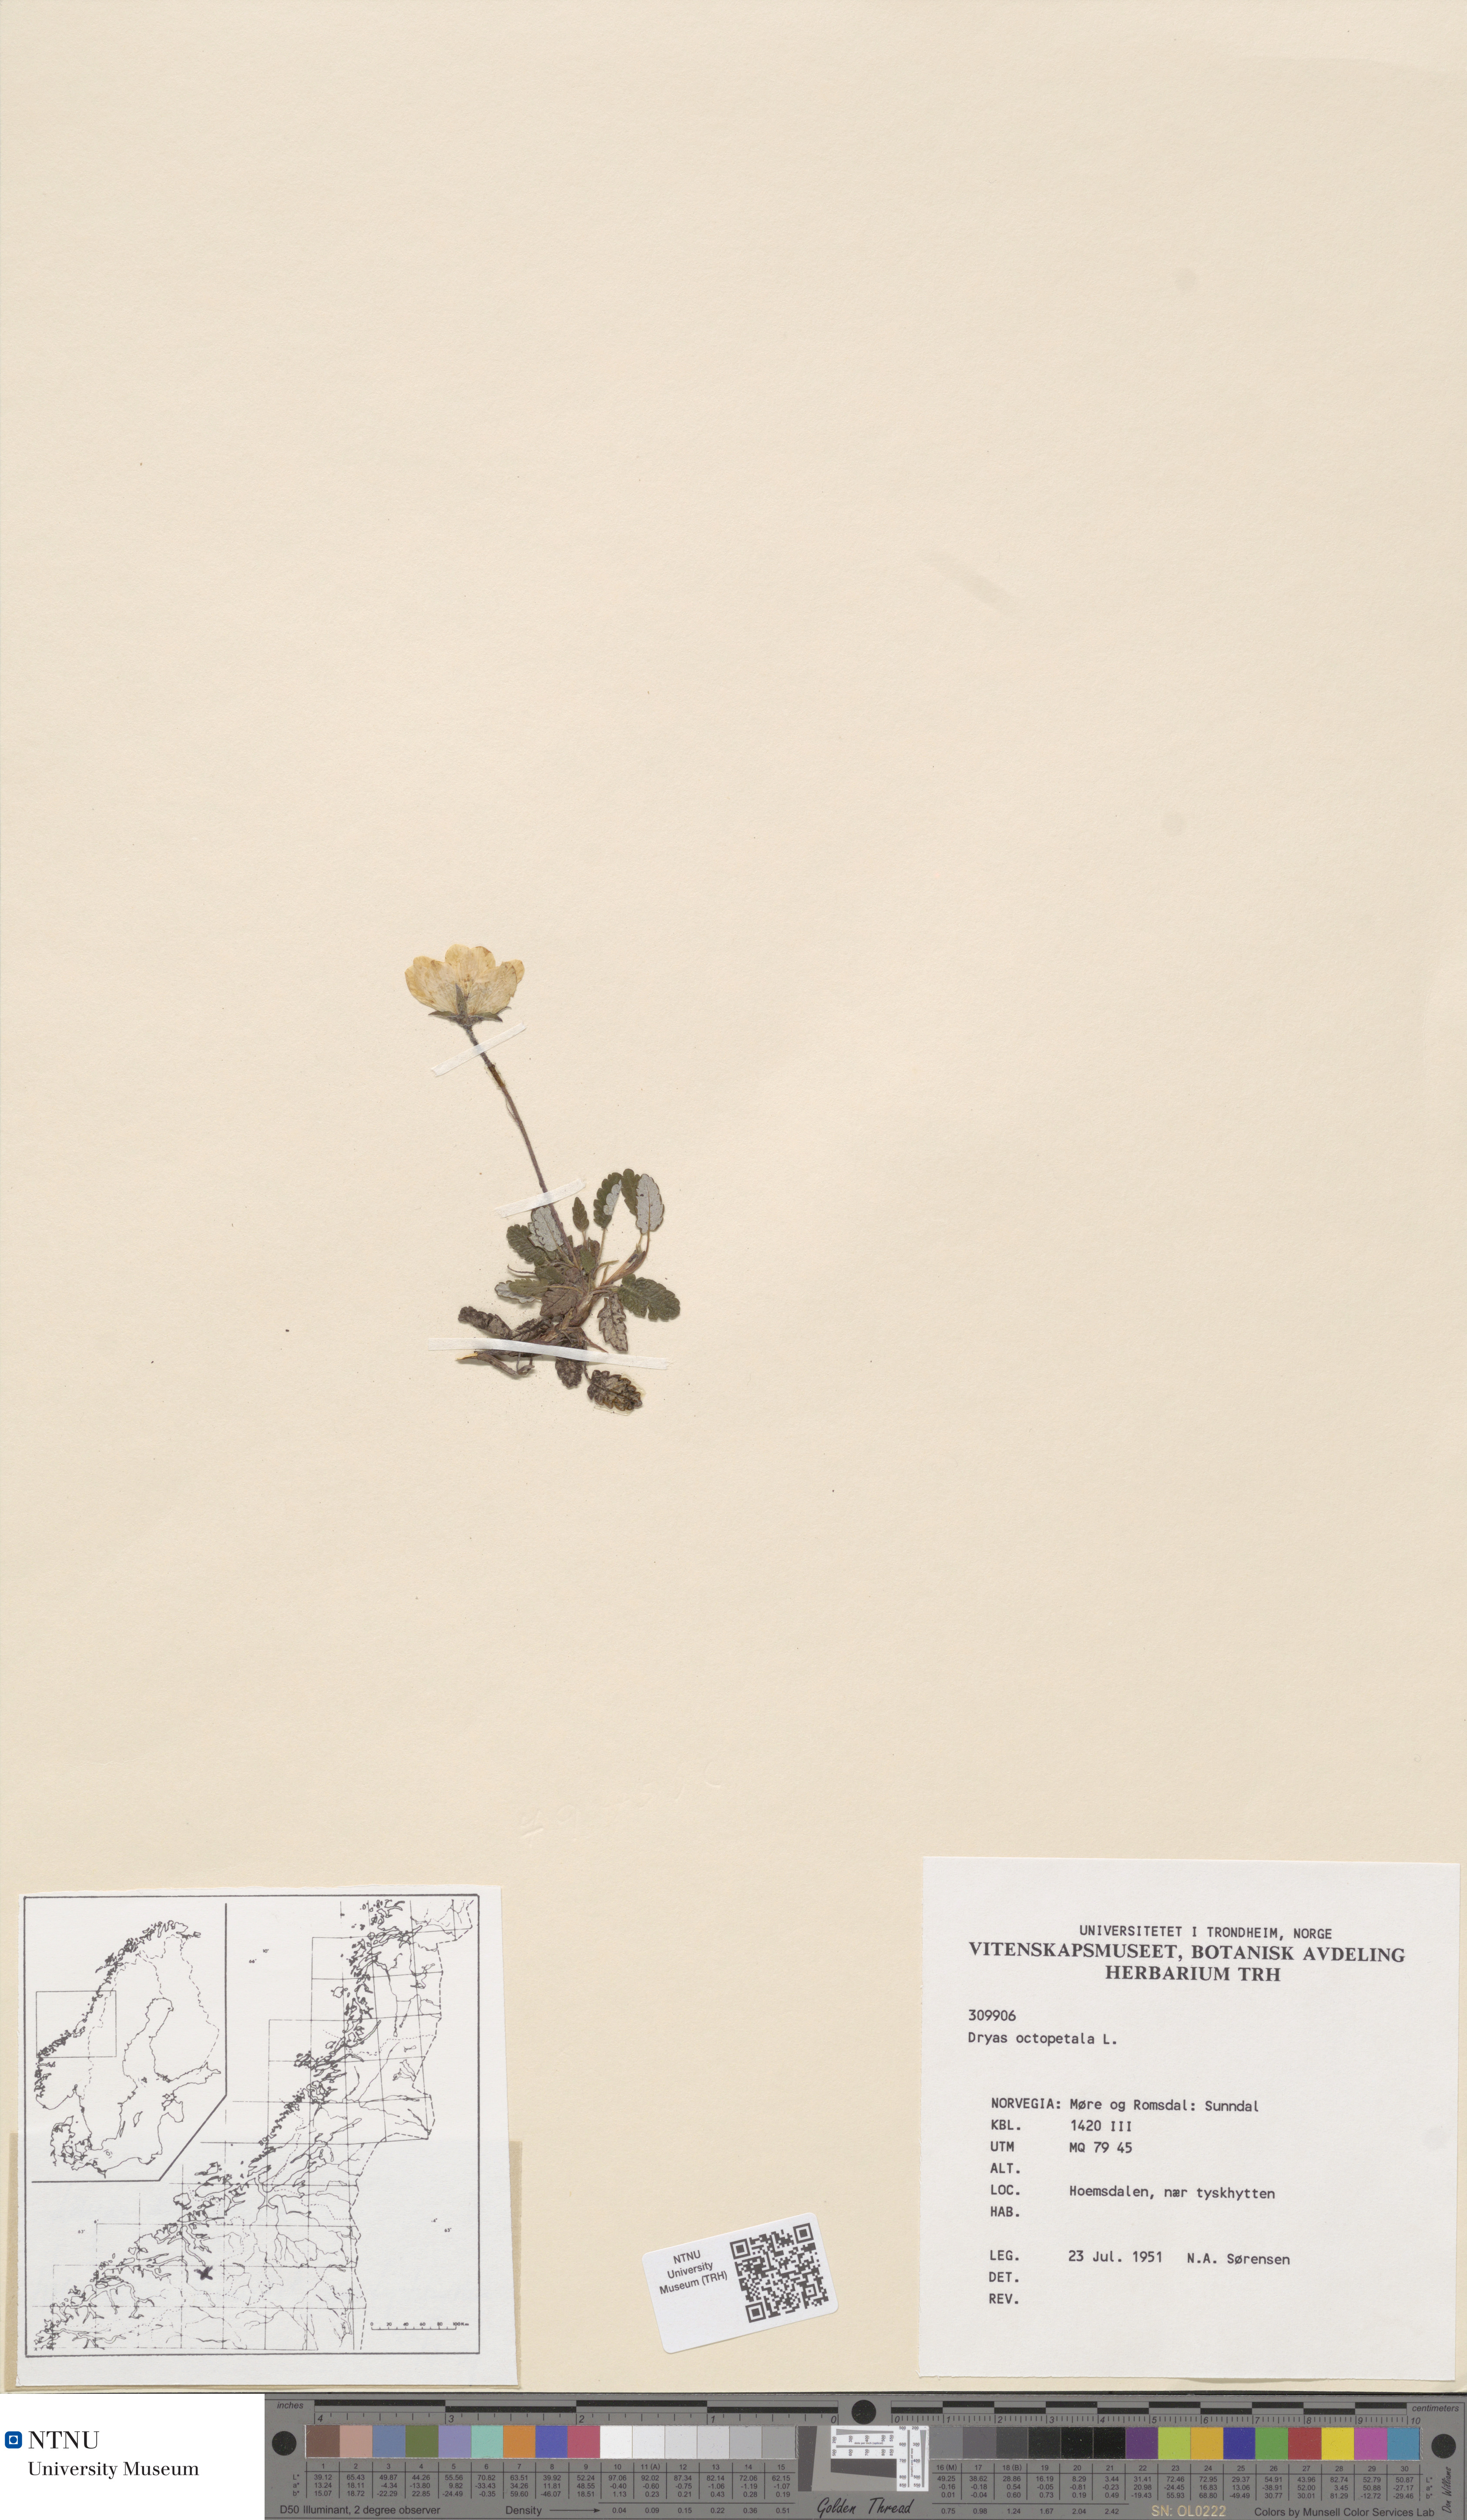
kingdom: Plantae
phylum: Tracheophyta
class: Magnoliopsida
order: Rosales
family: Rosaceae
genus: Dryas
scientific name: Dryas octopetala
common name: Eight-petal mountain-avens
